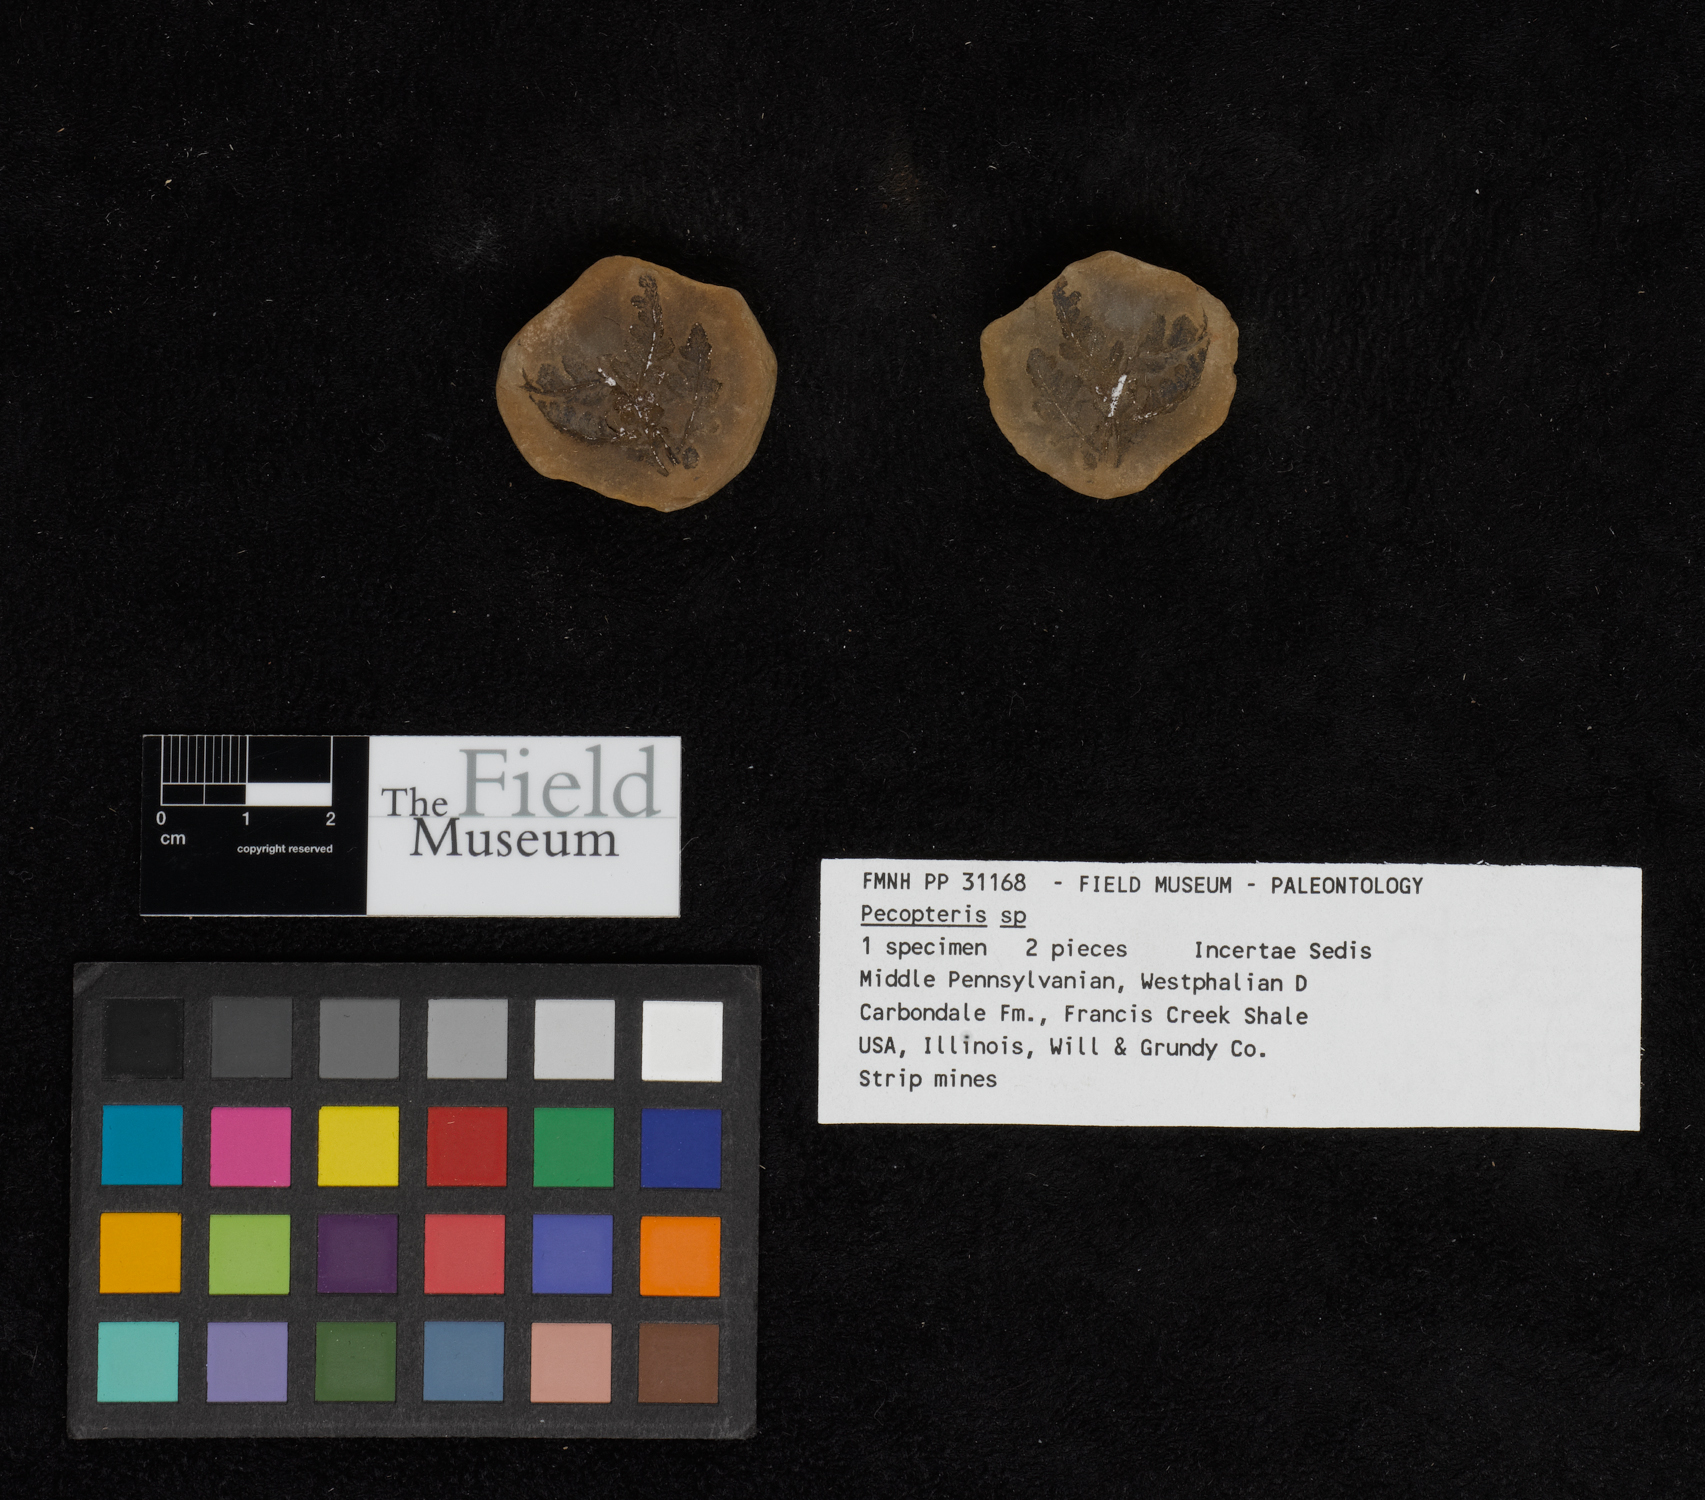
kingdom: Plantae
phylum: Tracheophyta
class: Polypodiopsida
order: Marattiales
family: Asterothecaceae
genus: Pecopteris
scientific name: Pecopteris
